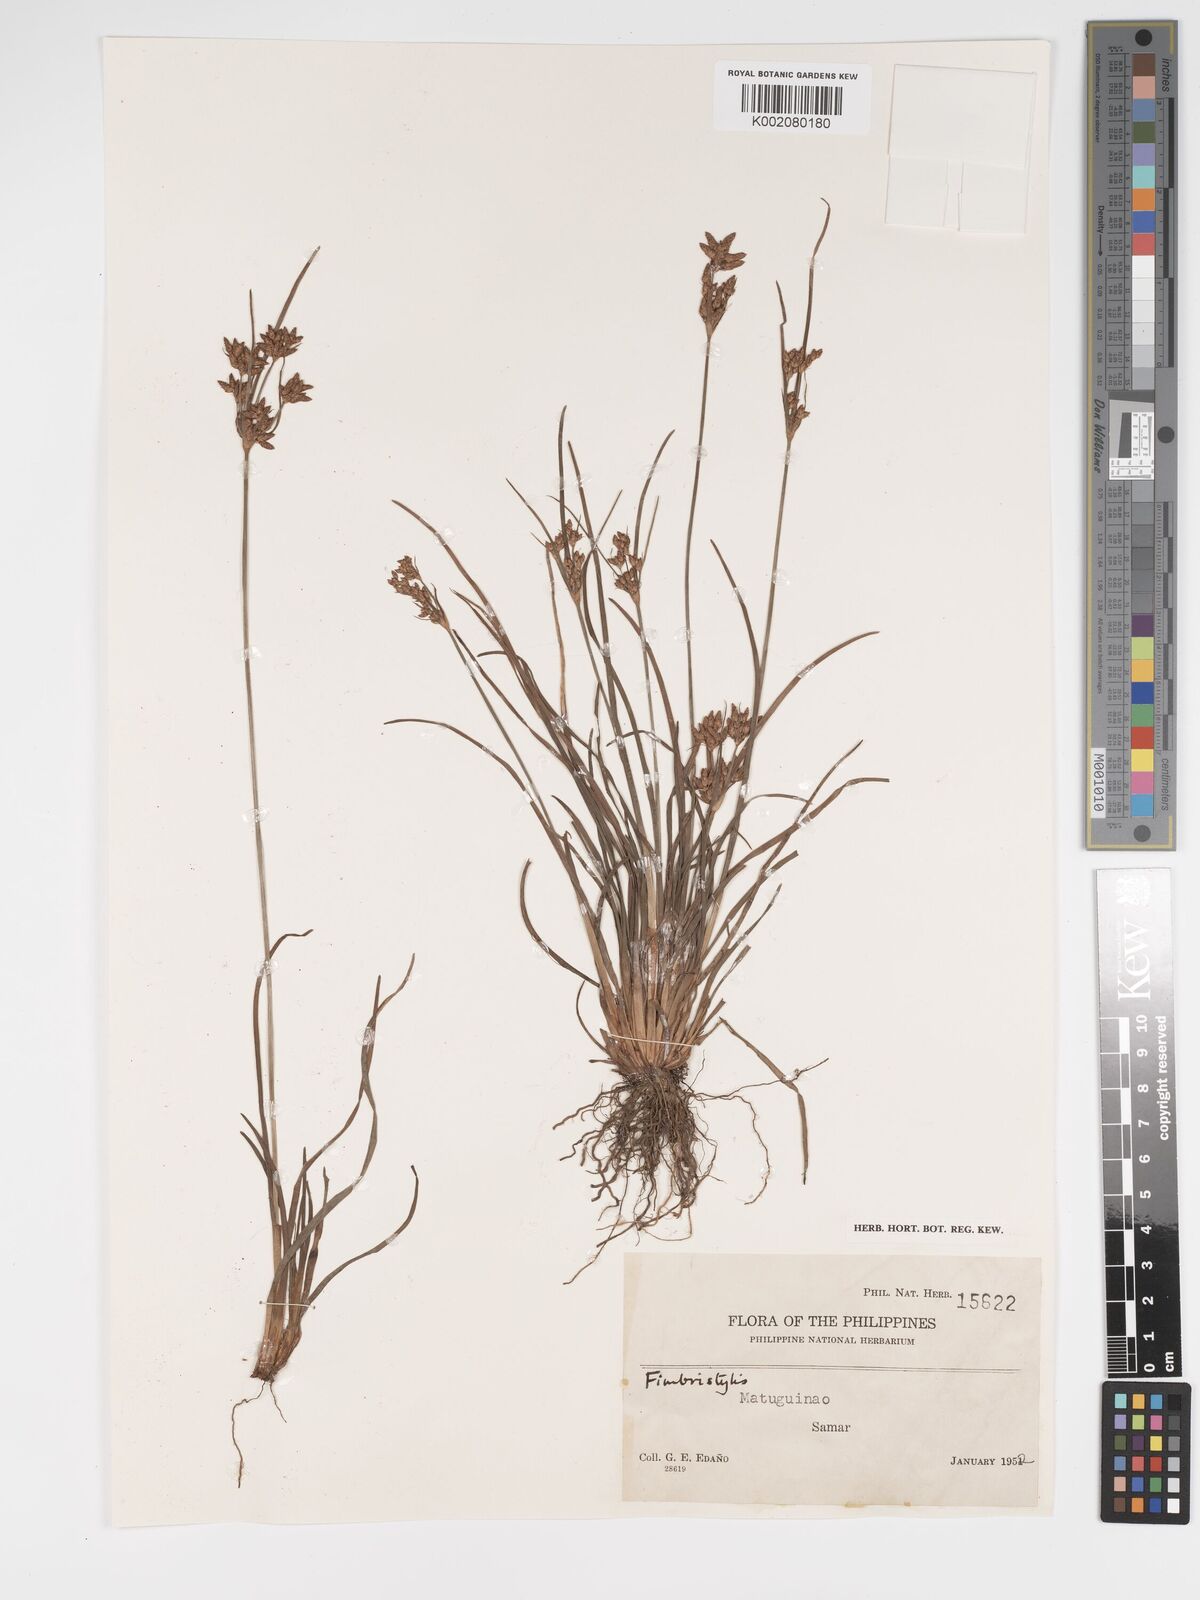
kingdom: Plantae
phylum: Tracheophyta
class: Liliopsida
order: Poales
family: Cyperaceae
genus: Fimbristylis
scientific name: Fimbristylis
